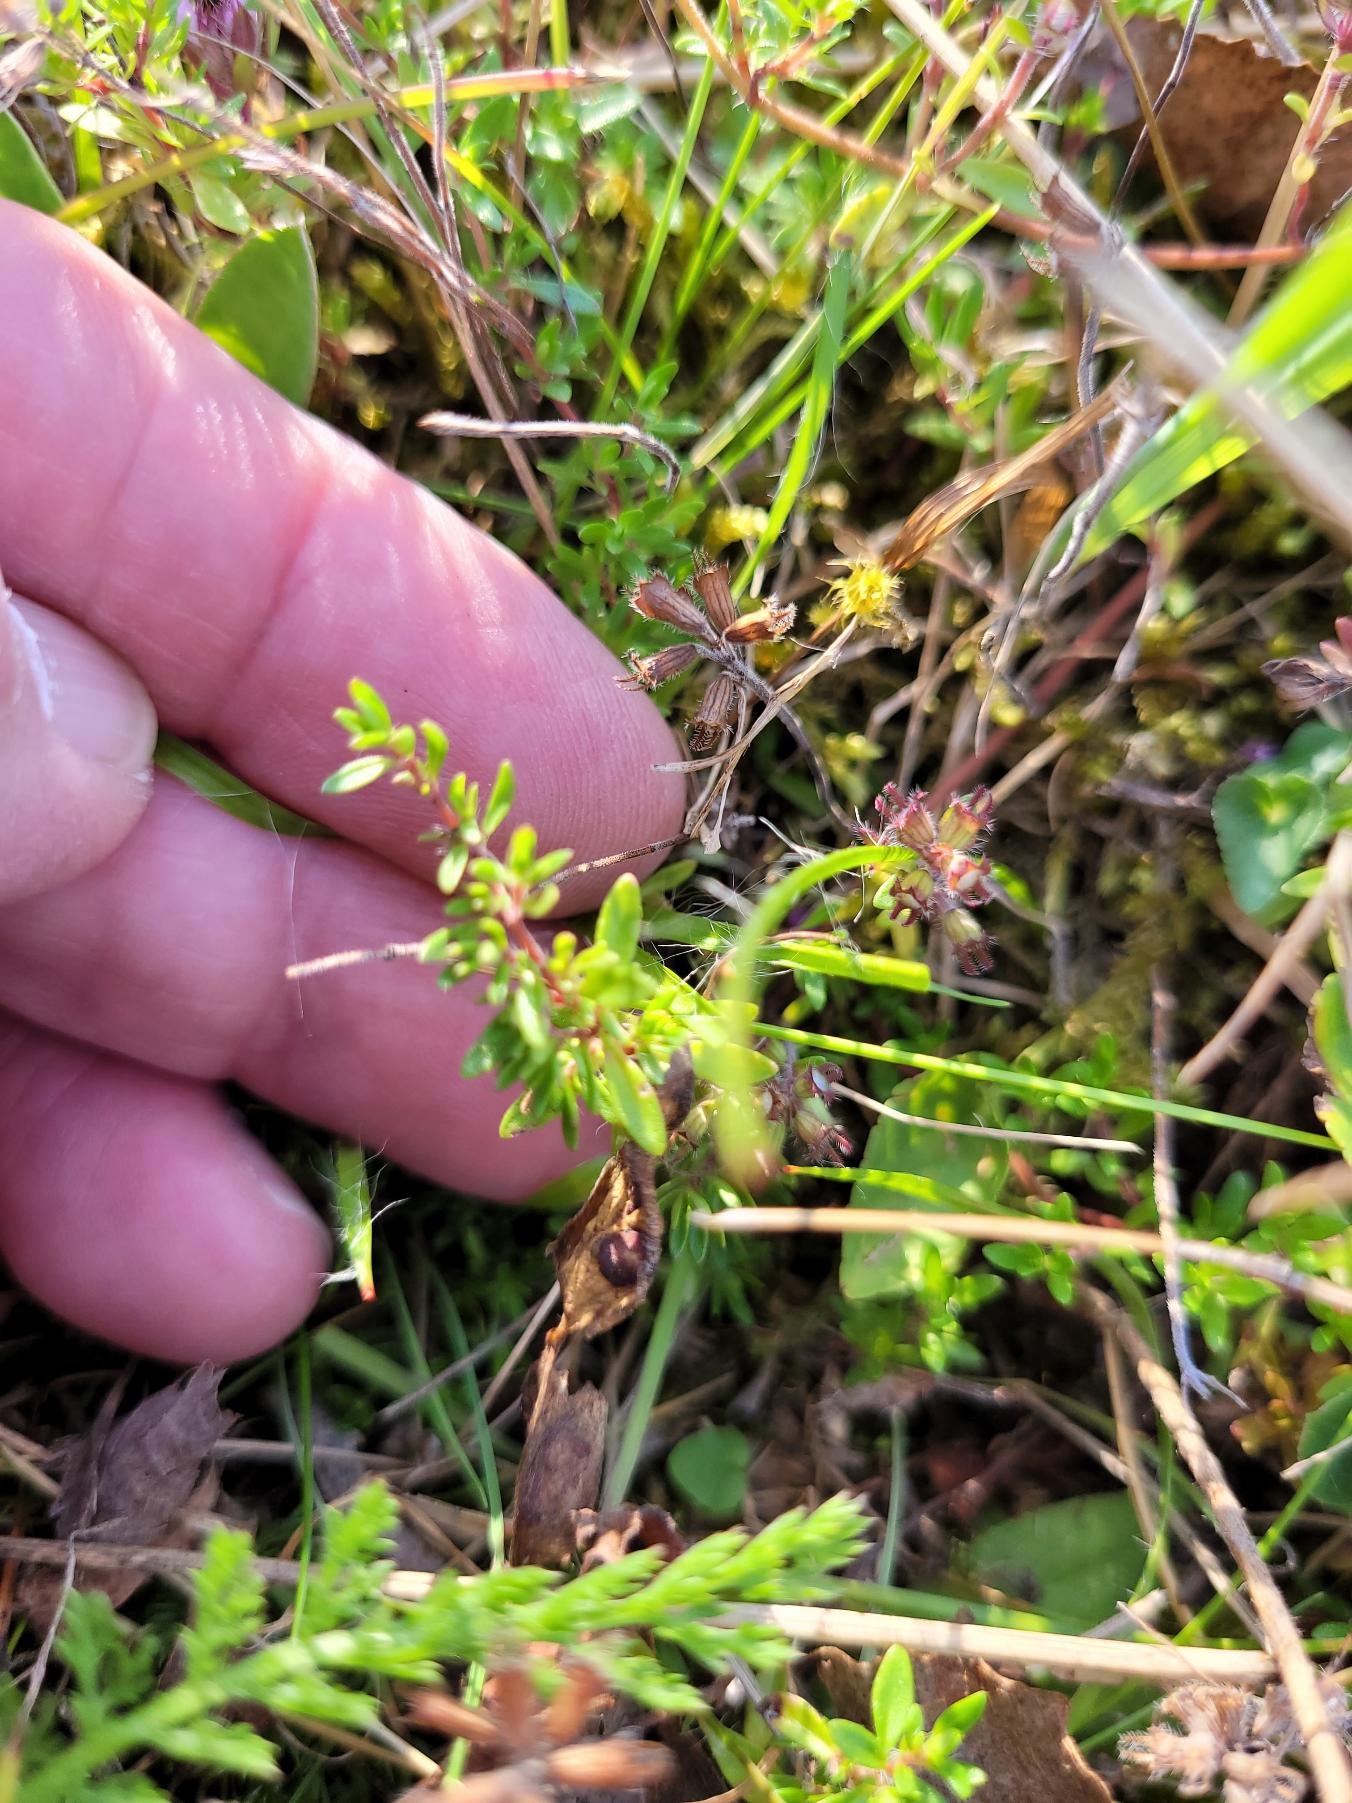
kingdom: Plantae
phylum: Tracheophyta
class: Magnoliopsida
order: Lamiales
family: Lamiaceae
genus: Thymus
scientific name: Thymus serpyllum
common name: Smalbladet timian
